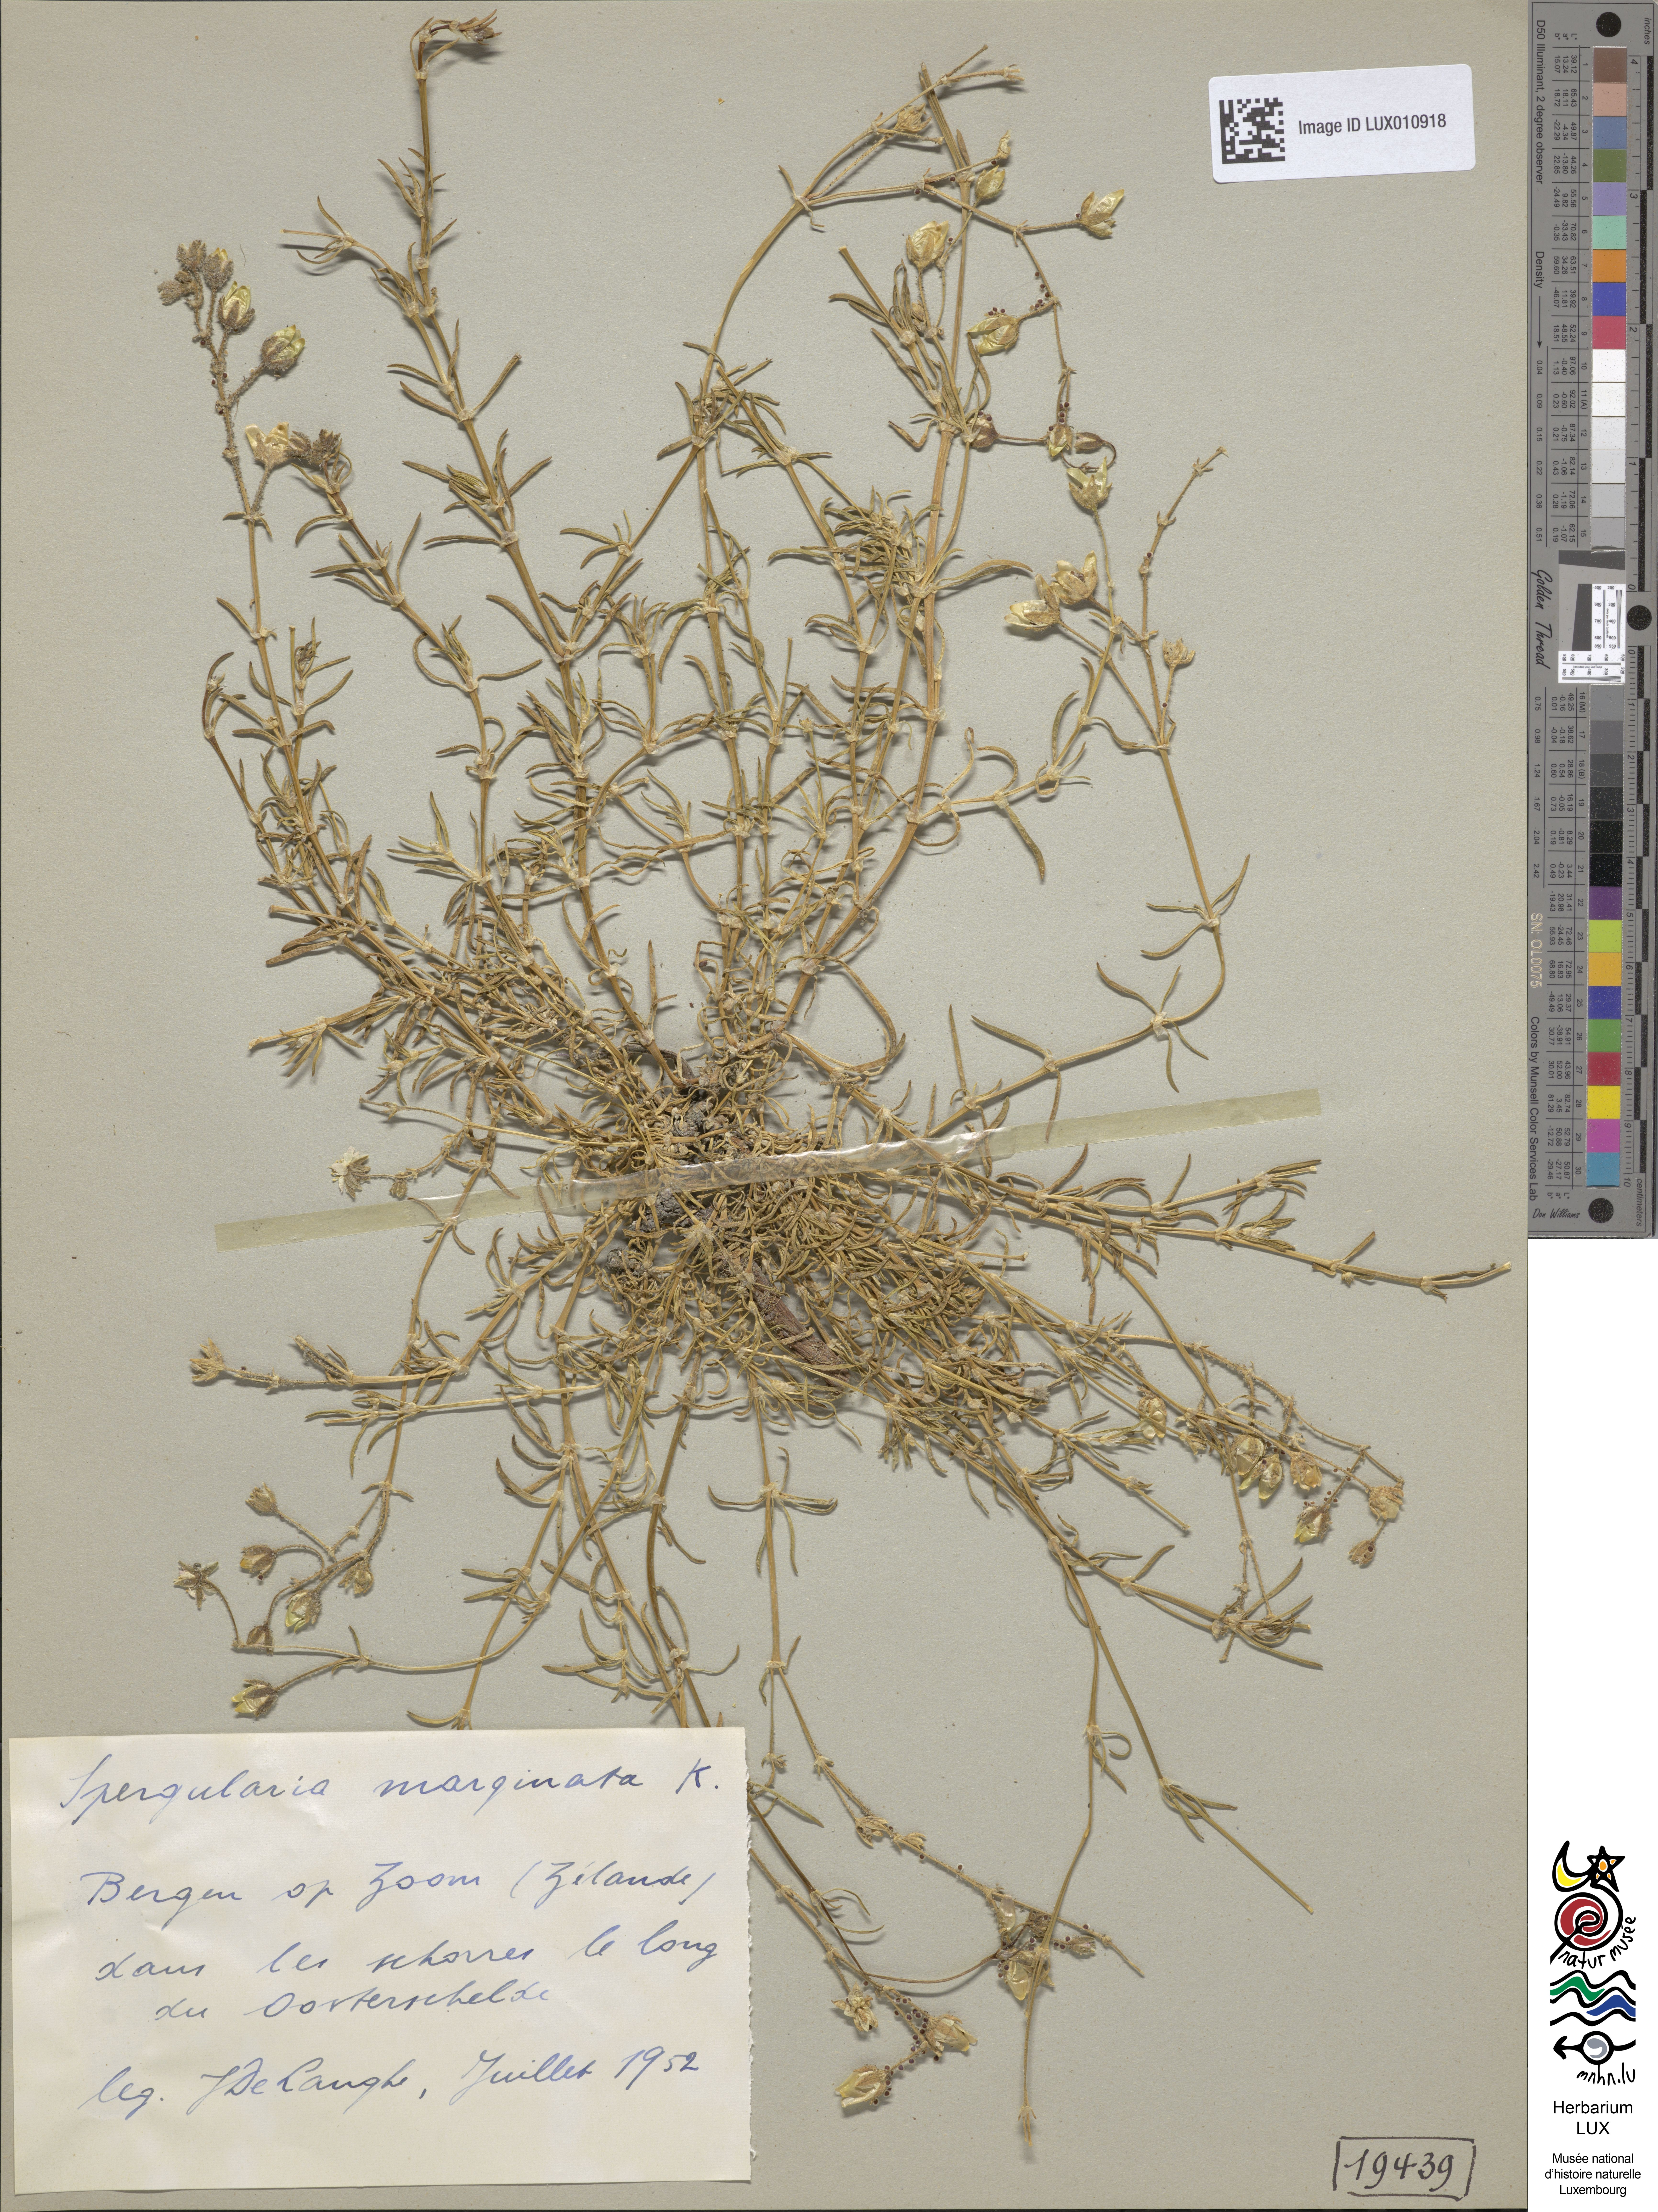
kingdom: Plantae
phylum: Tracheophyta
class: Magnoliopsida
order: Caryophyllales
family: Caryophyllaceae
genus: Spergularia
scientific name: Spergularia media
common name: Greater sea-spurrey
